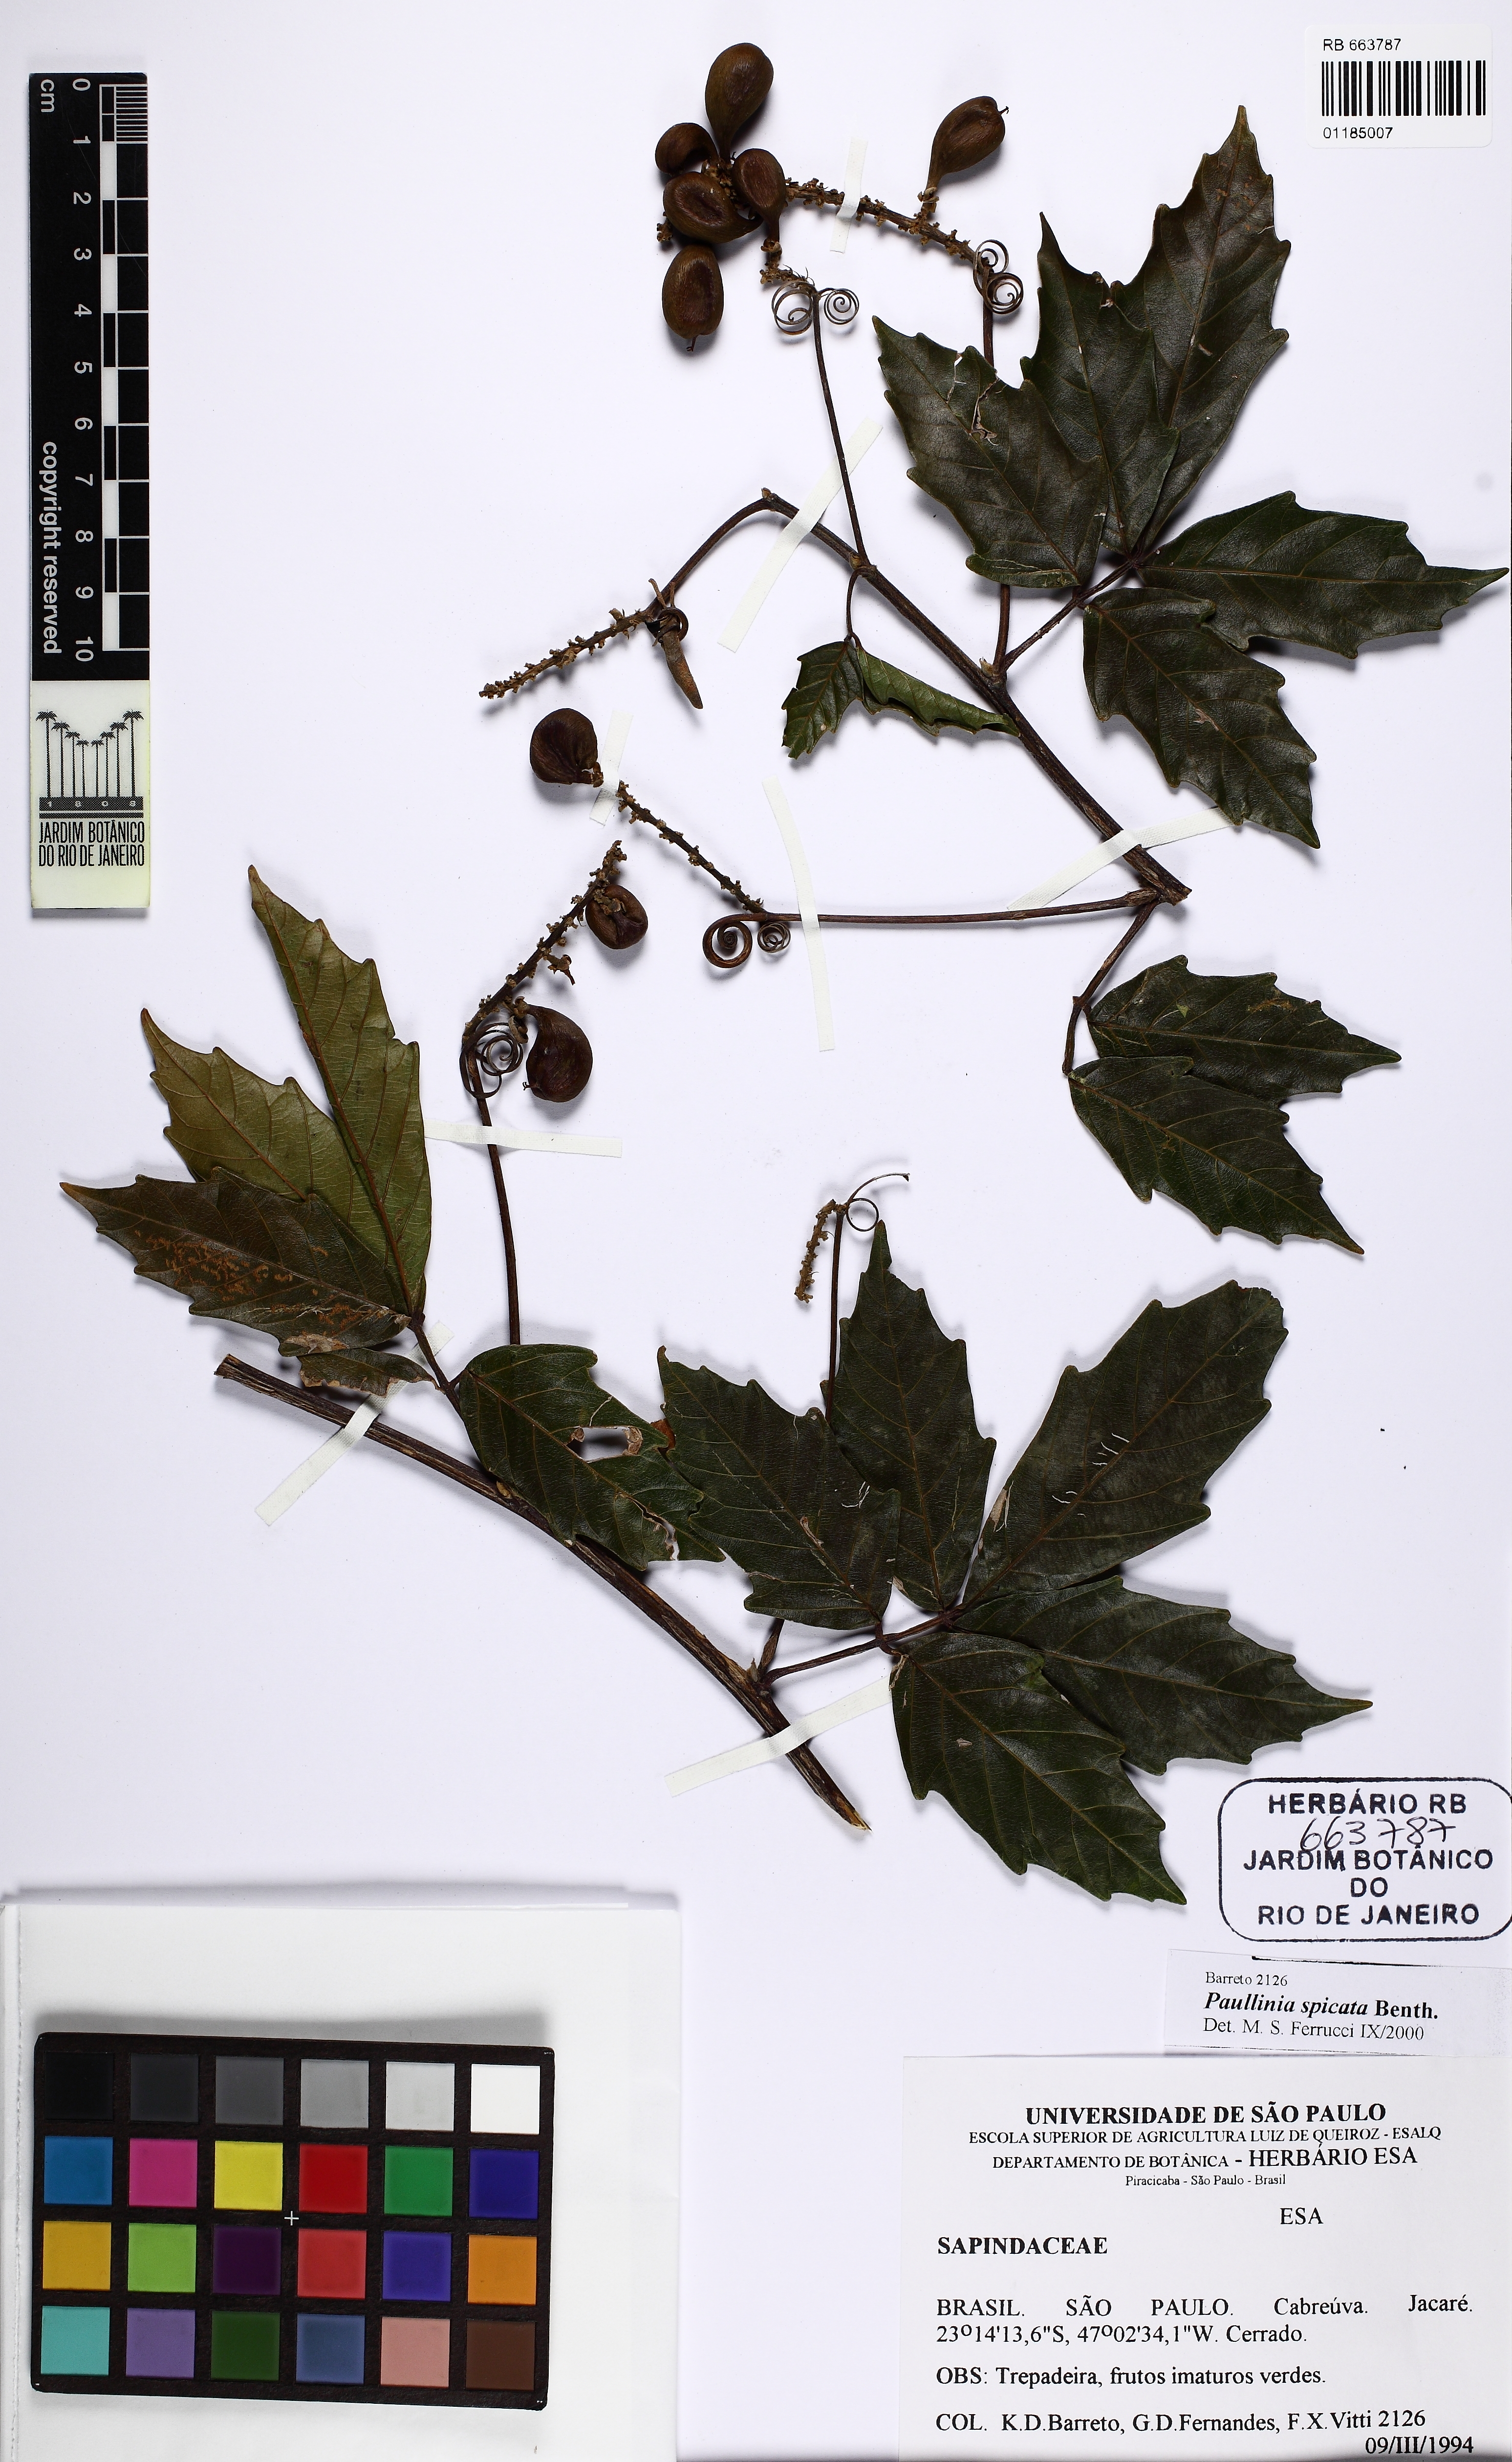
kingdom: Plantae
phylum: Tracheophyta
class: Magnoliopsida
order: Sapindales
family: Sapindaceae
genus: Paullinia
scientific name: Paullinia spicata
